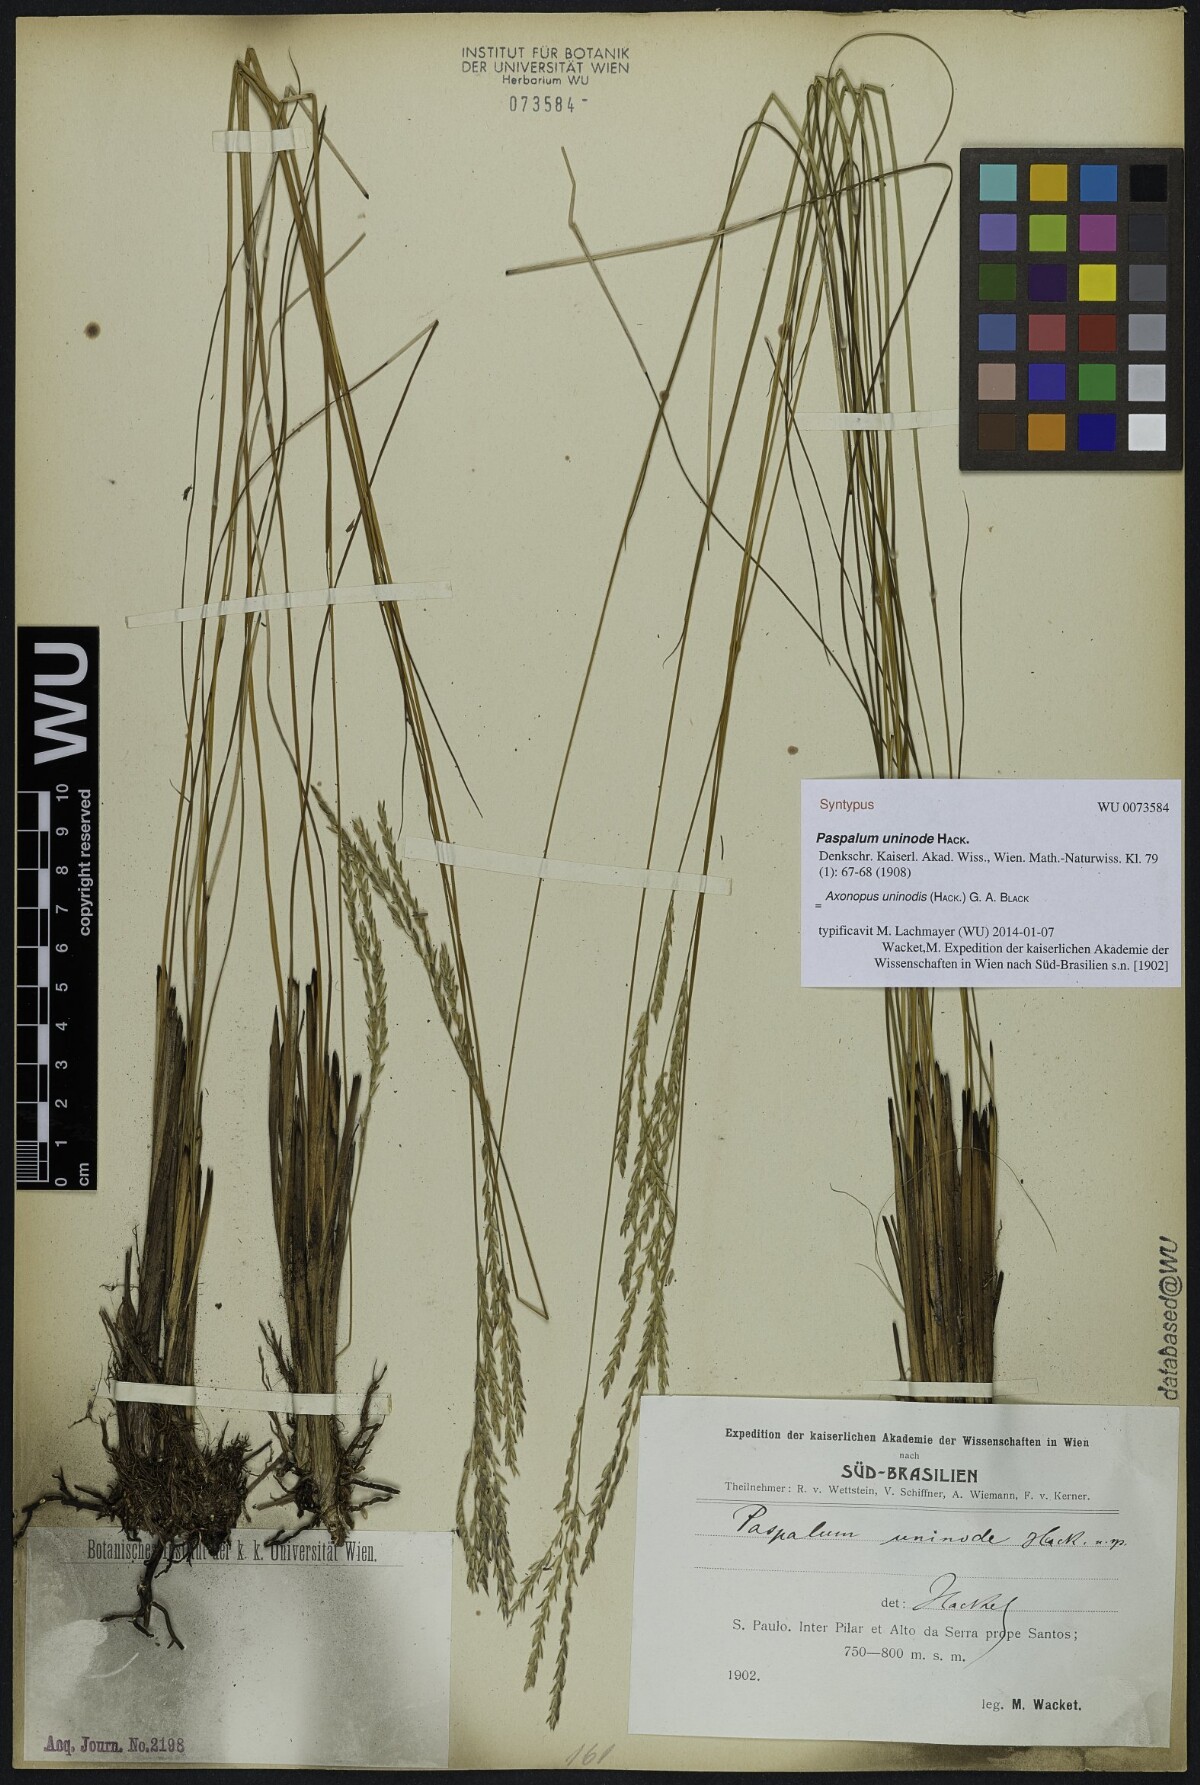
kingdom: Plantae
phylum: Tracheophyta
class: Liliopsida
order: Poales
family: Poaceae
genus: Axonopus
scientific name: Axonopus comans
